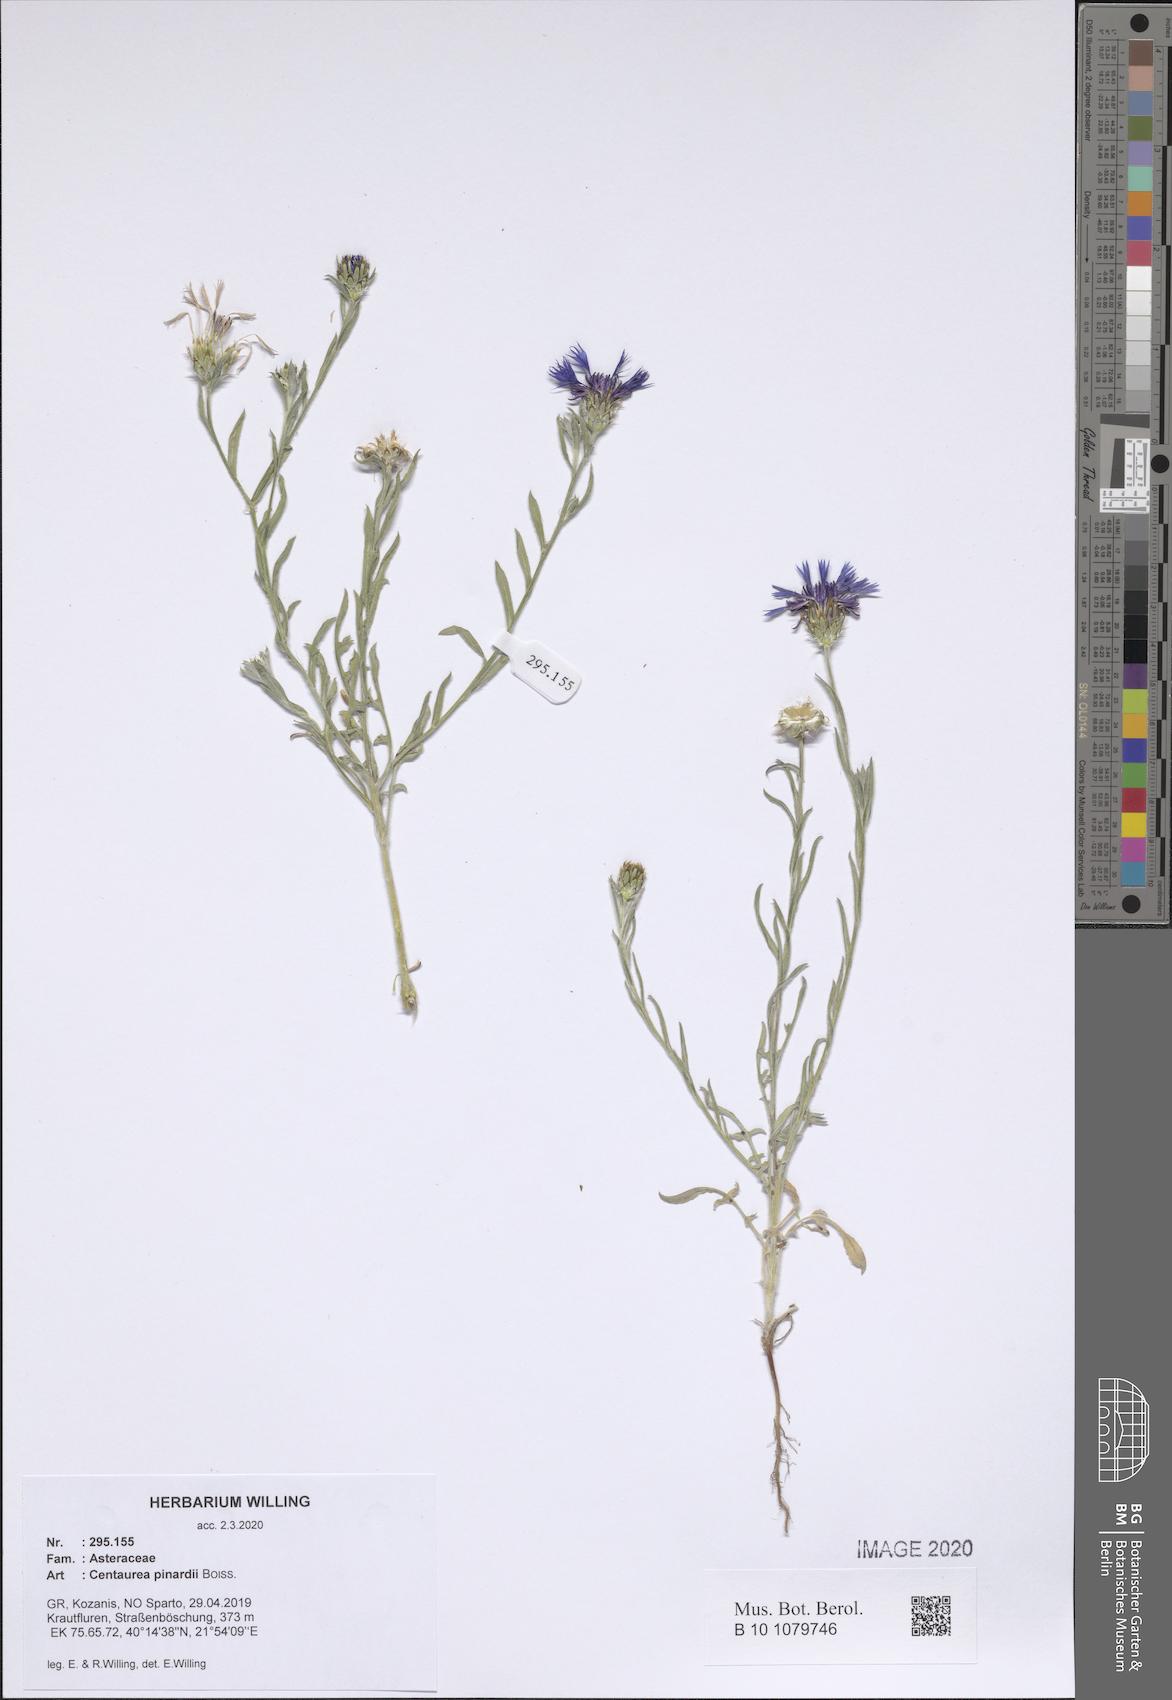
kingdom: Plantae
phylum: Tracheophyta
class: Magnoliopsida
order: Asterales
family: Asteraceae
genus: Centaurea
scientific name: Centaurea pinardii
